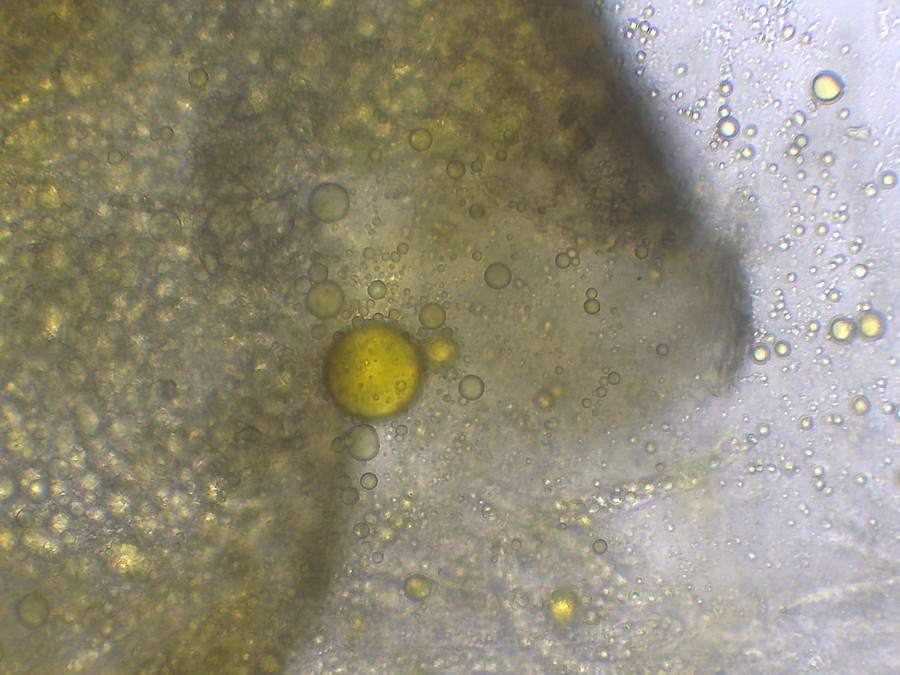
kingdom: Fungi
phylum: Ascomycota
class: Sordariomycetes
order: Diaporthales
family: Valsaceae
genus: Hypospilina
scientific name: Hypospilina pustula
